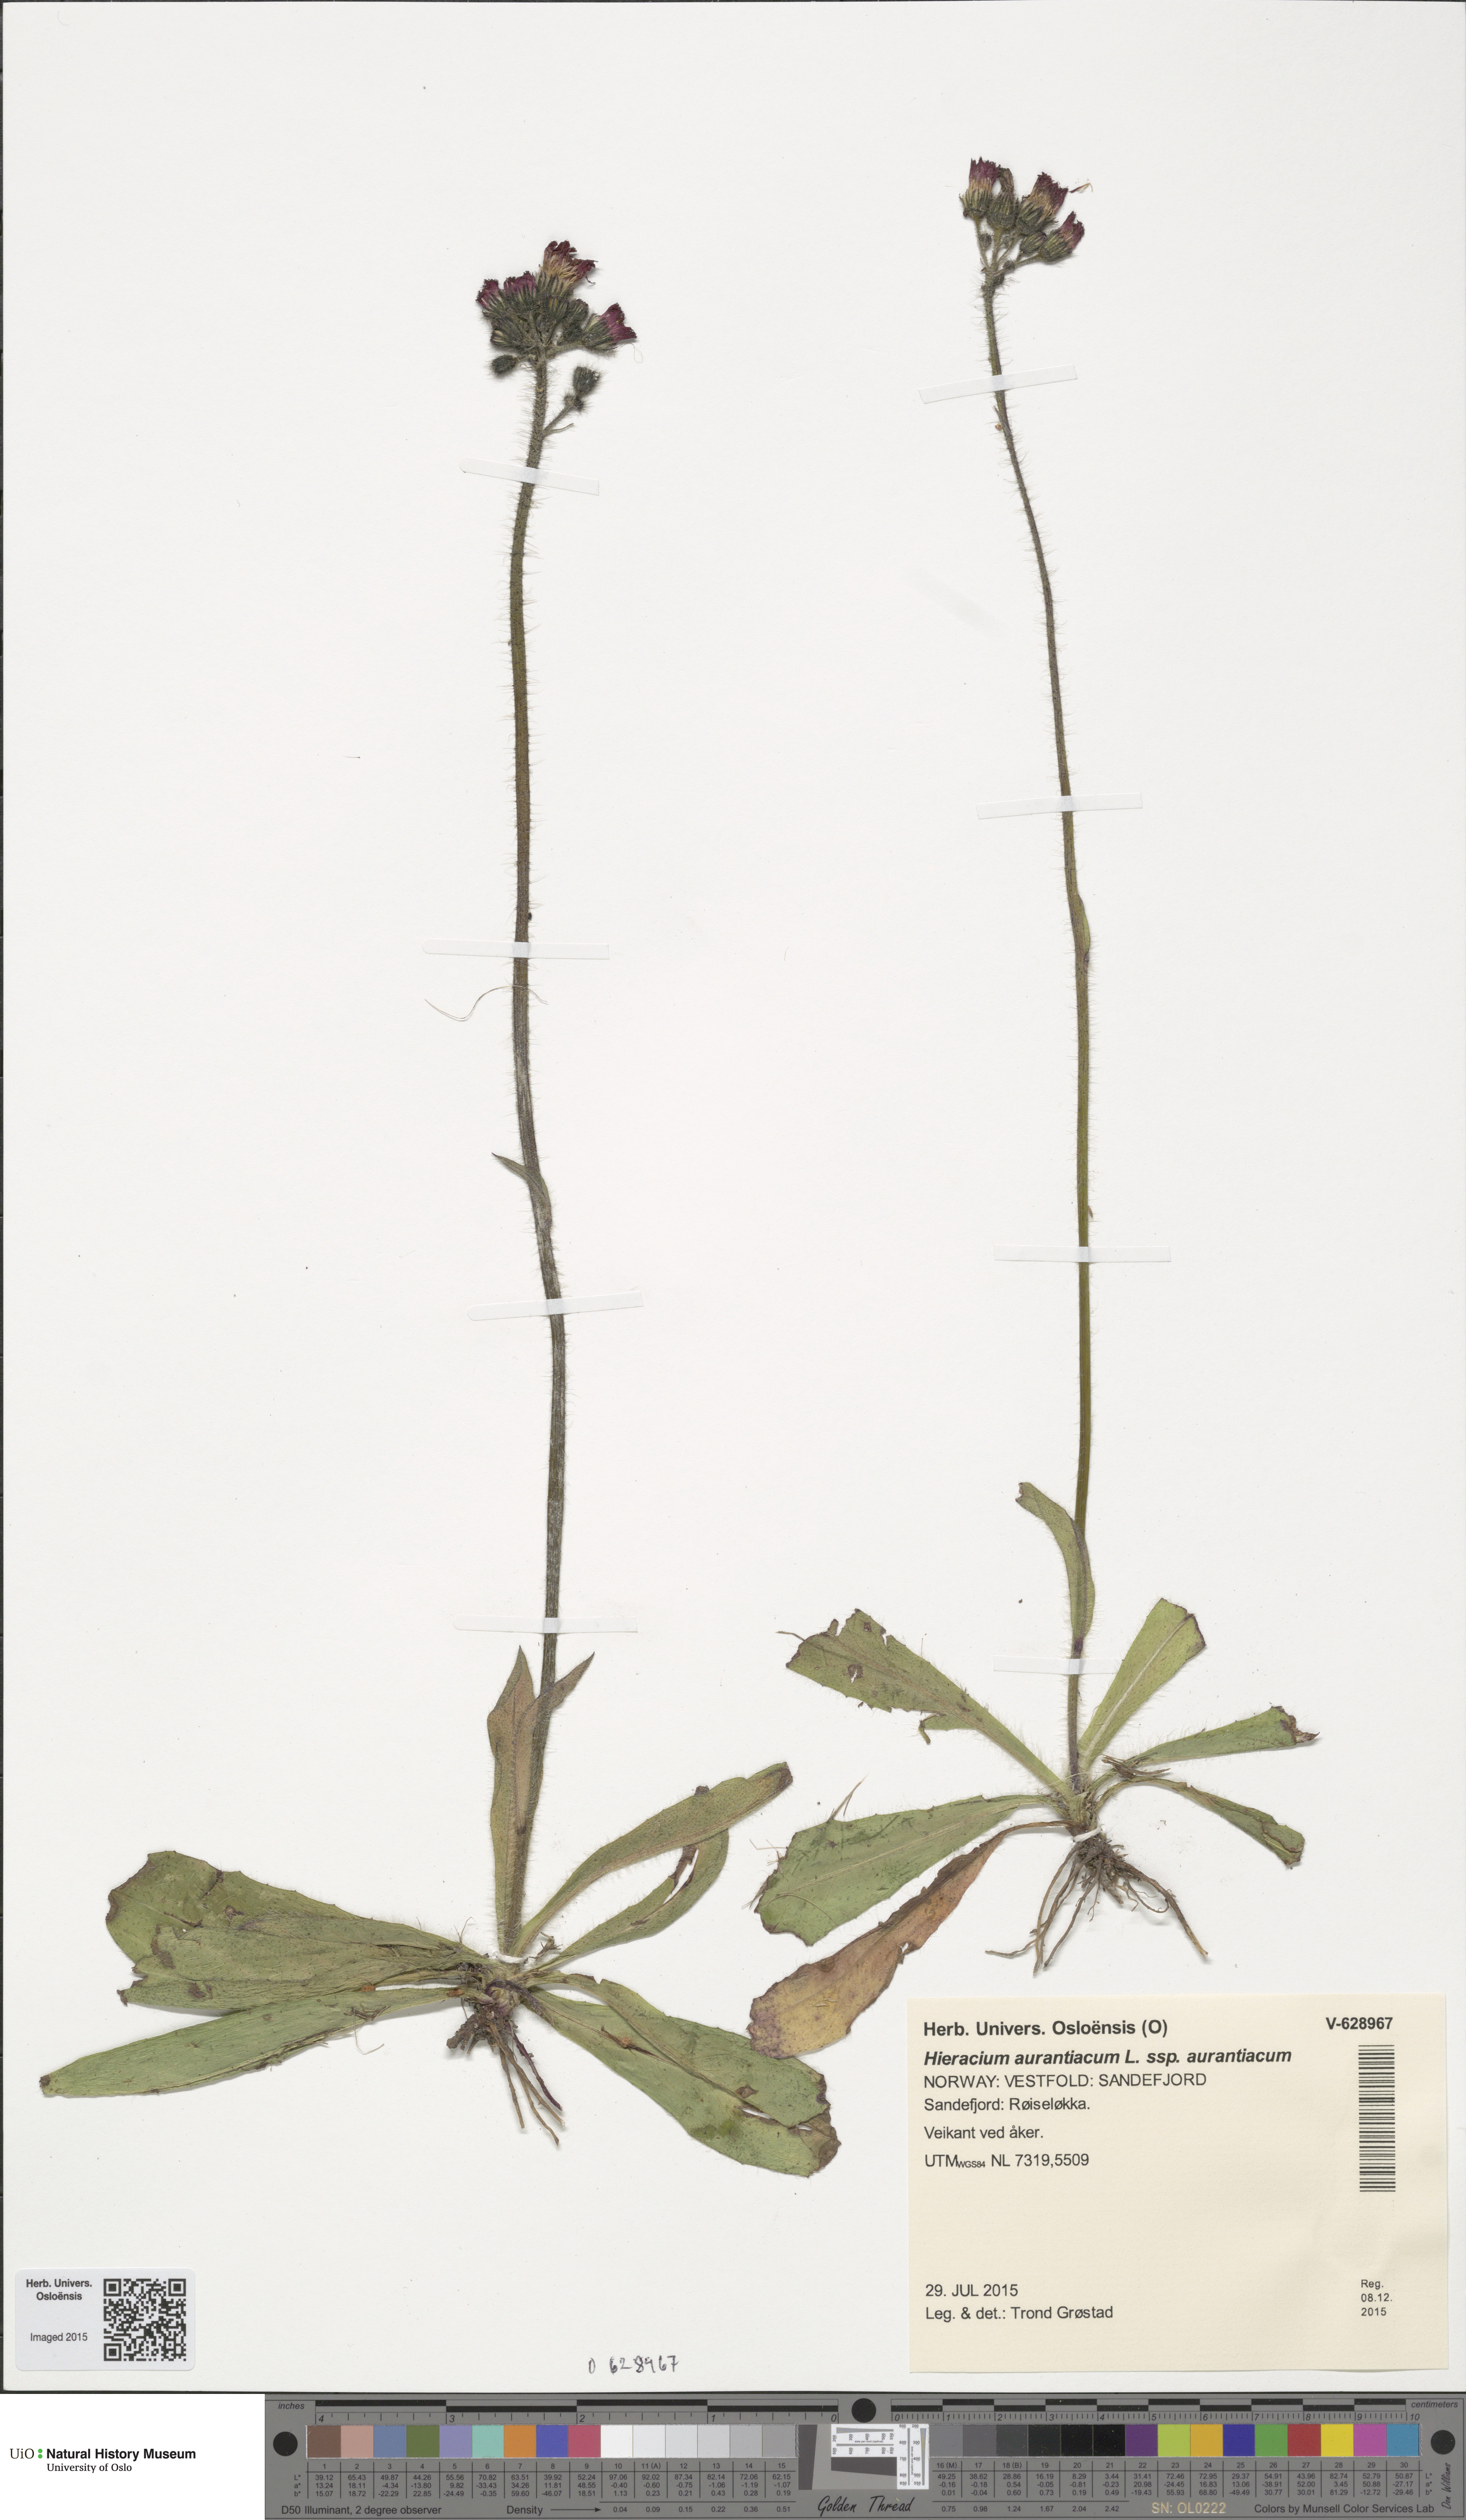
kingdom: Plantae
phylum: Tracheophyta
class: Magnoliopsida
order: Asterales
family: Asteraceae
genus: Pilosella
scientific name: Pilosella aurantiaca
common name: Fox-and-cubs
